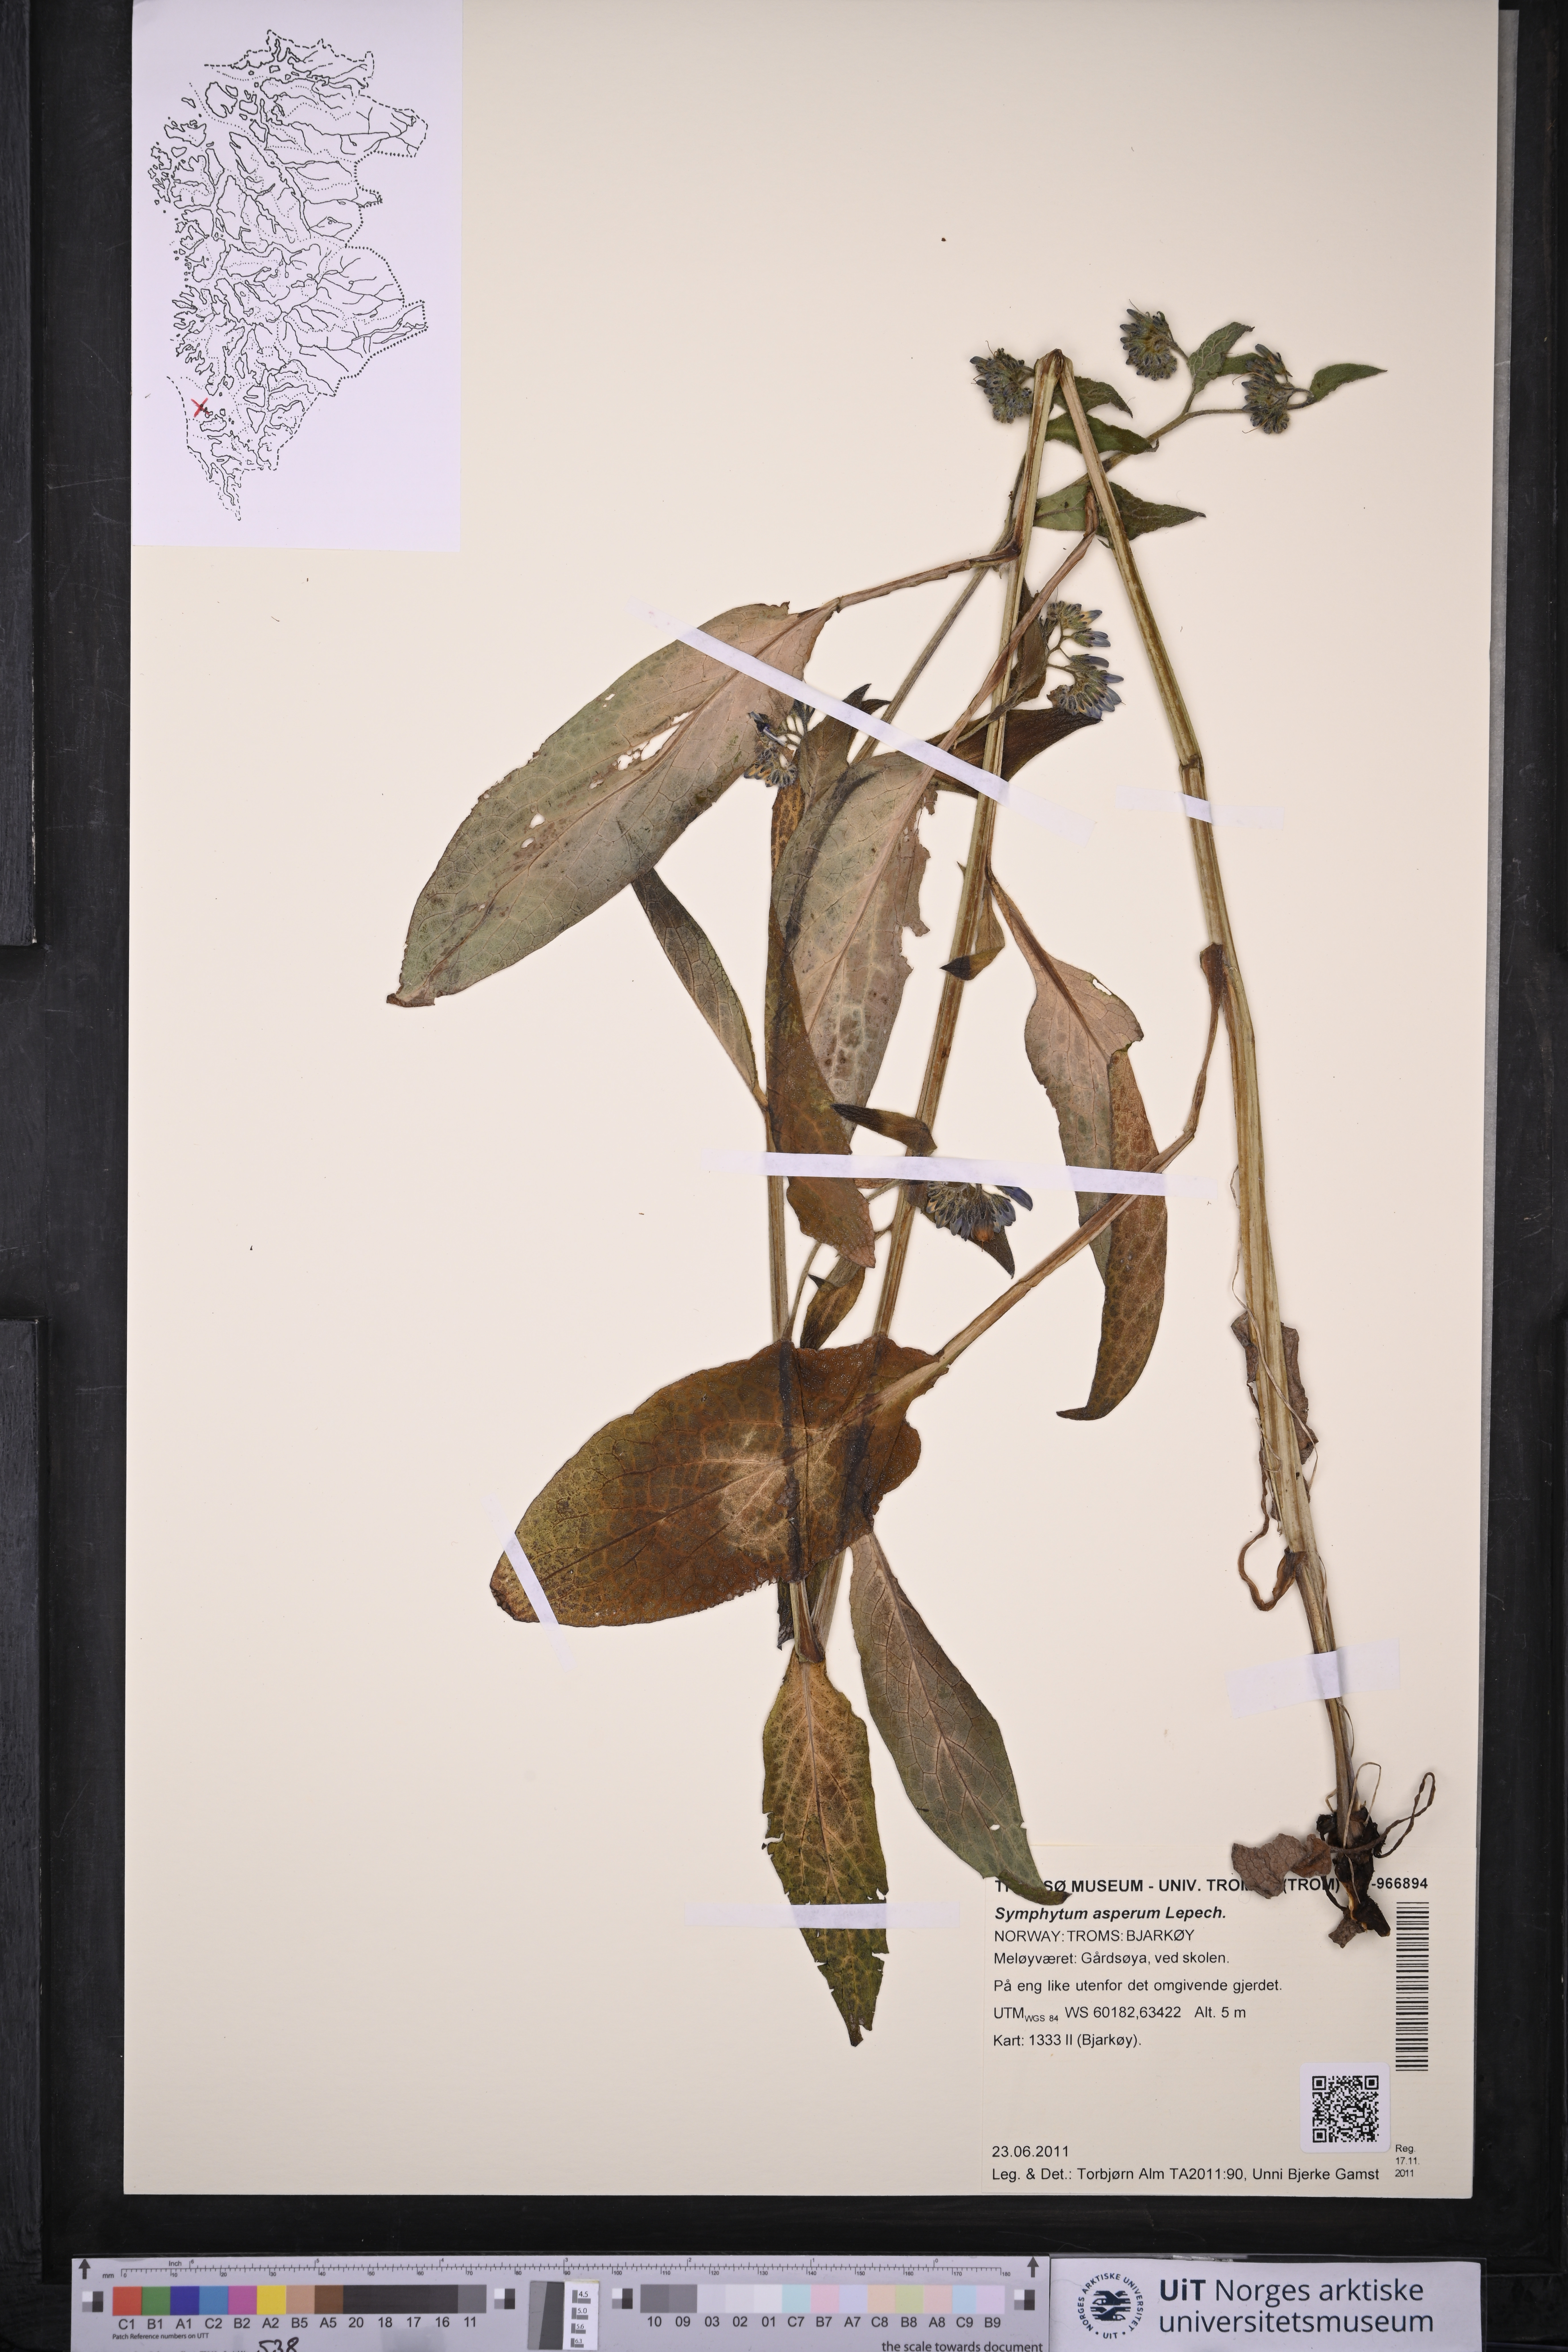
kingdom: Plantae
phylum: Tracheophyta
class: Magnoliopsida
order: Boraginales
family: Boraginaceae
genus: Symphytum
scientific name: Symphytum asperum
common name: Prickly comfrey
